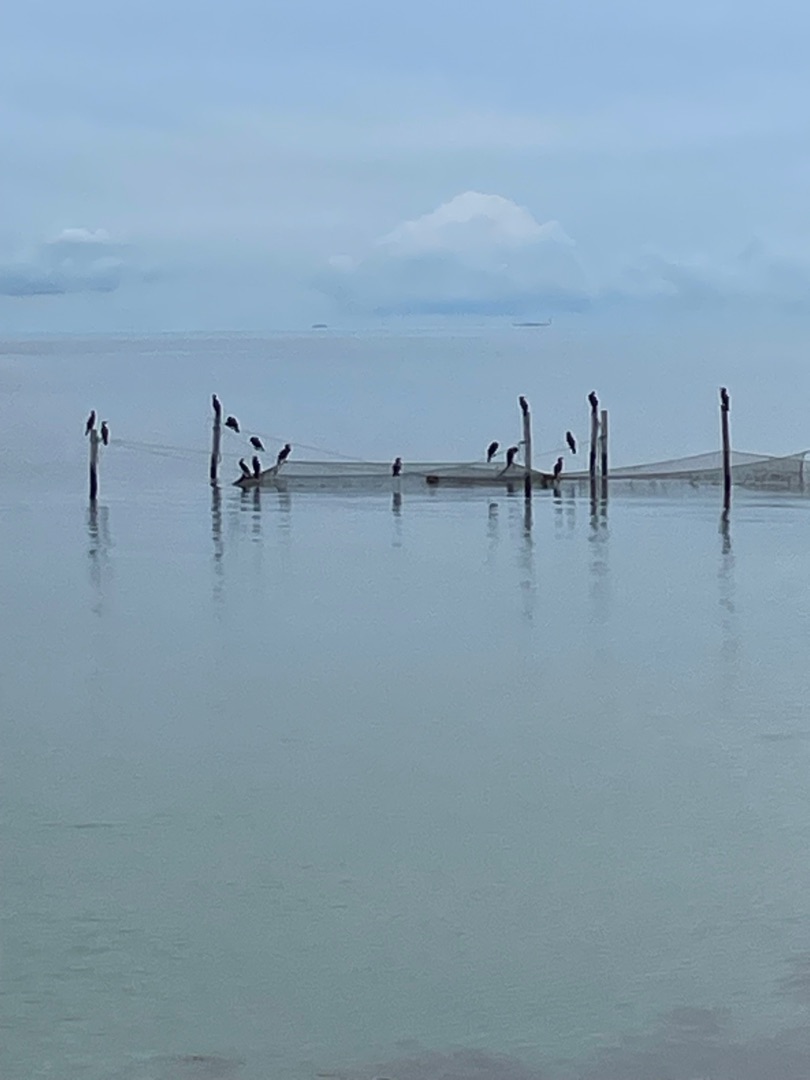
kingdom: Animalia
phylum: Chordata
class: Aves
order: Suliformes
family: Phalacrocoracidae
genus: Phalacrocorax
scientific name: Phalacrocorax carbo
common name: Skarv
